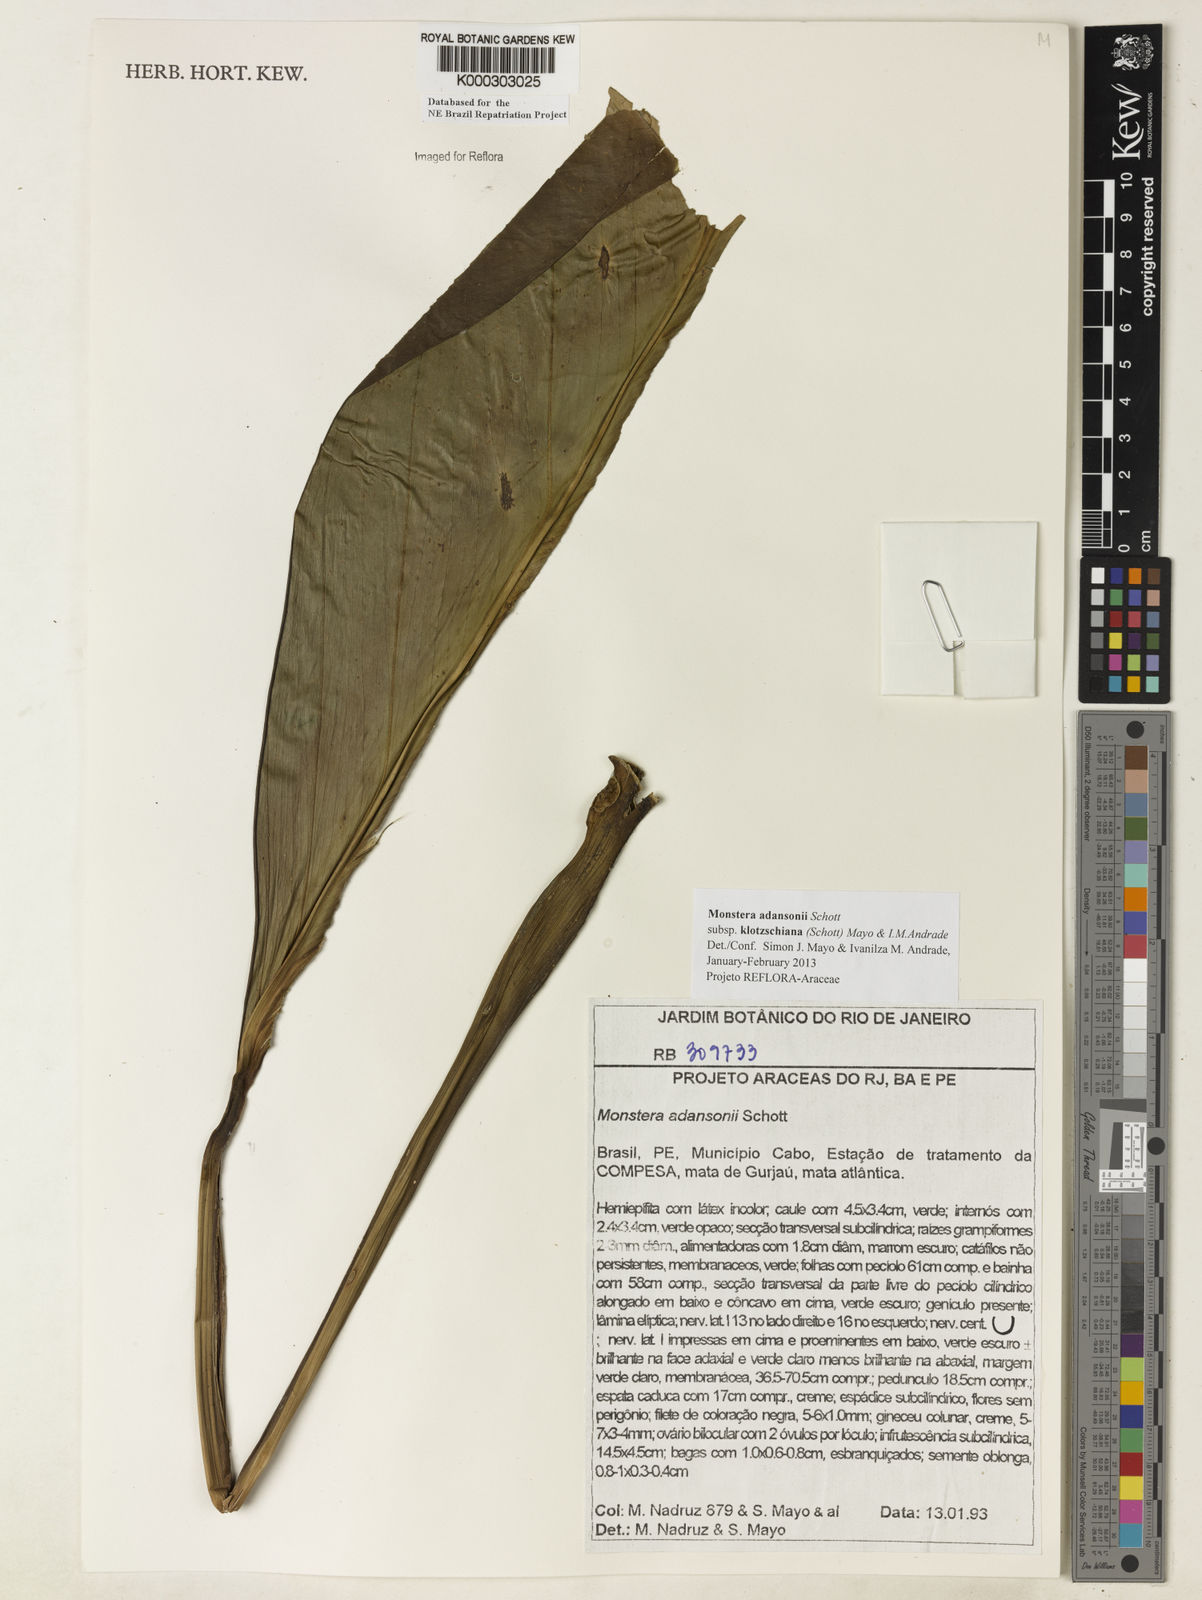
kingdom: Plantae
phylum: Tracheophyta
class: Liliopsida
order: Alismatales
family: Araceae
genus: Monstera
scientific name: Monstera adansonii
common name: Tarovine
